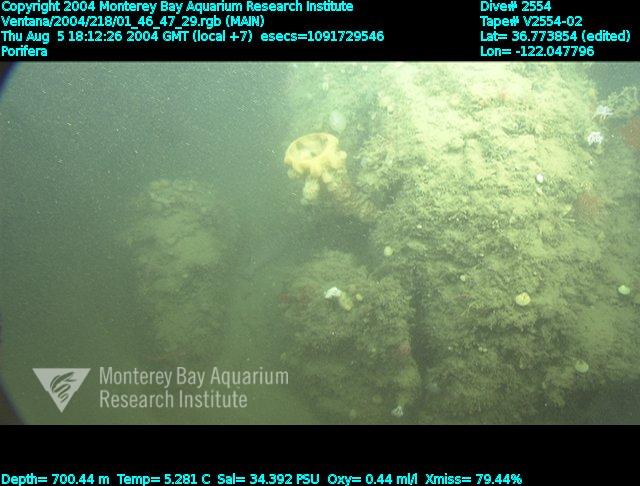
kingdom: Animalia
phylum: Porifera
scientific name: Porifera
